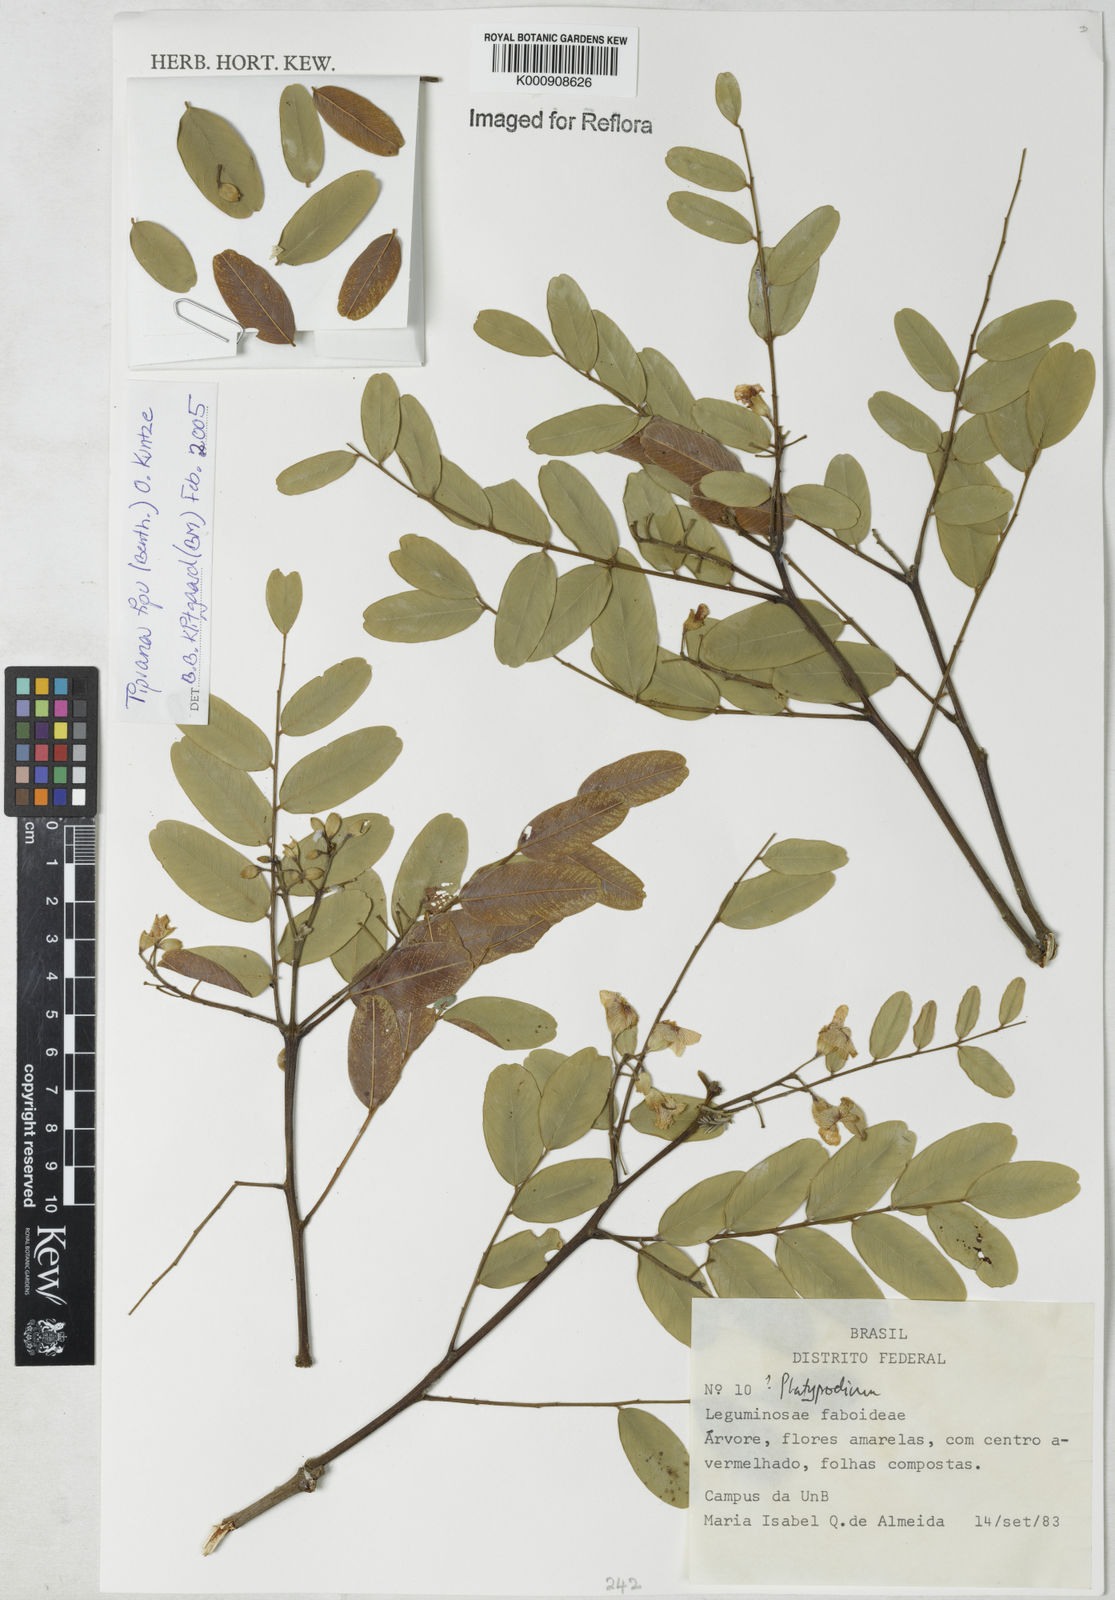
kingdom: Plantae
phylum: Tracheophyta
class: Magnoliopsida
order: Fabales
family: Fabaceae
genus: Tipuana
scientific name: Tipuana tipu
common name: Tiputree
